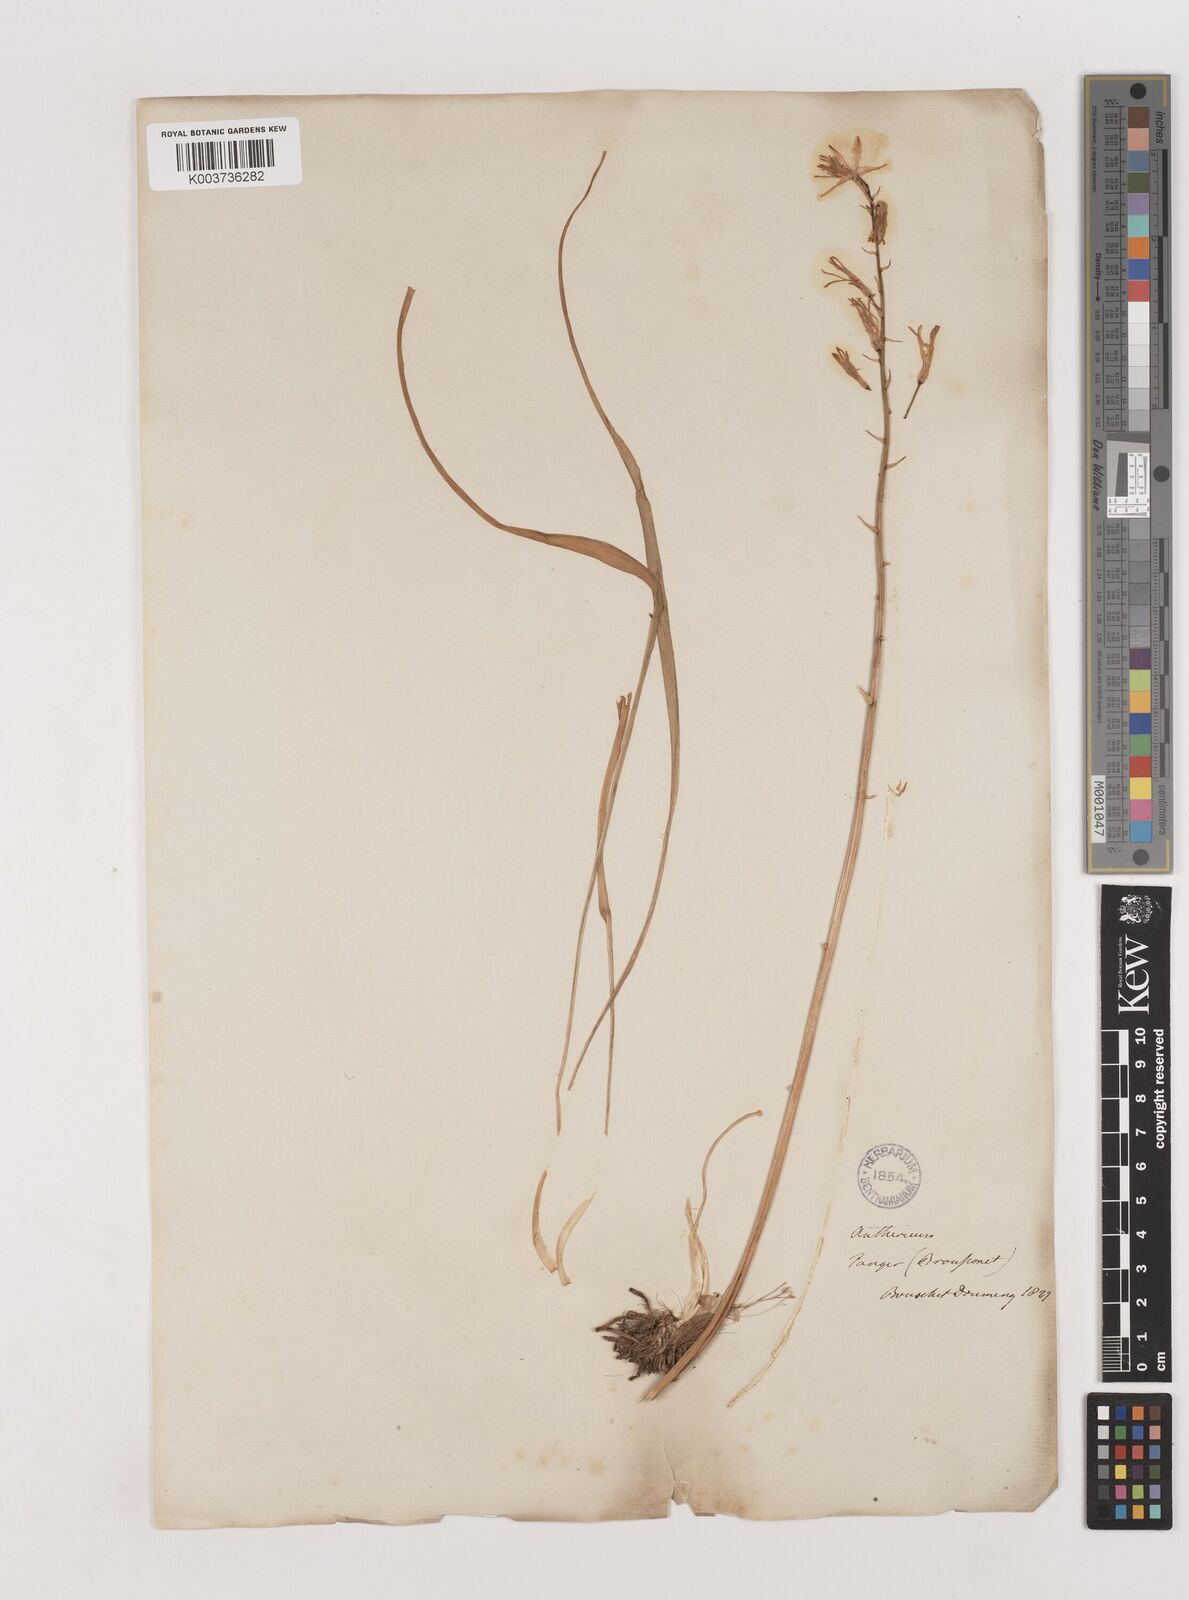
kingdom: Plantae
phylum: Tracheophyta
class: Liliopsida
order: Asparagales
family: Asparagaceae
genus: Anthericum
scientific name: Anthericum liliago
